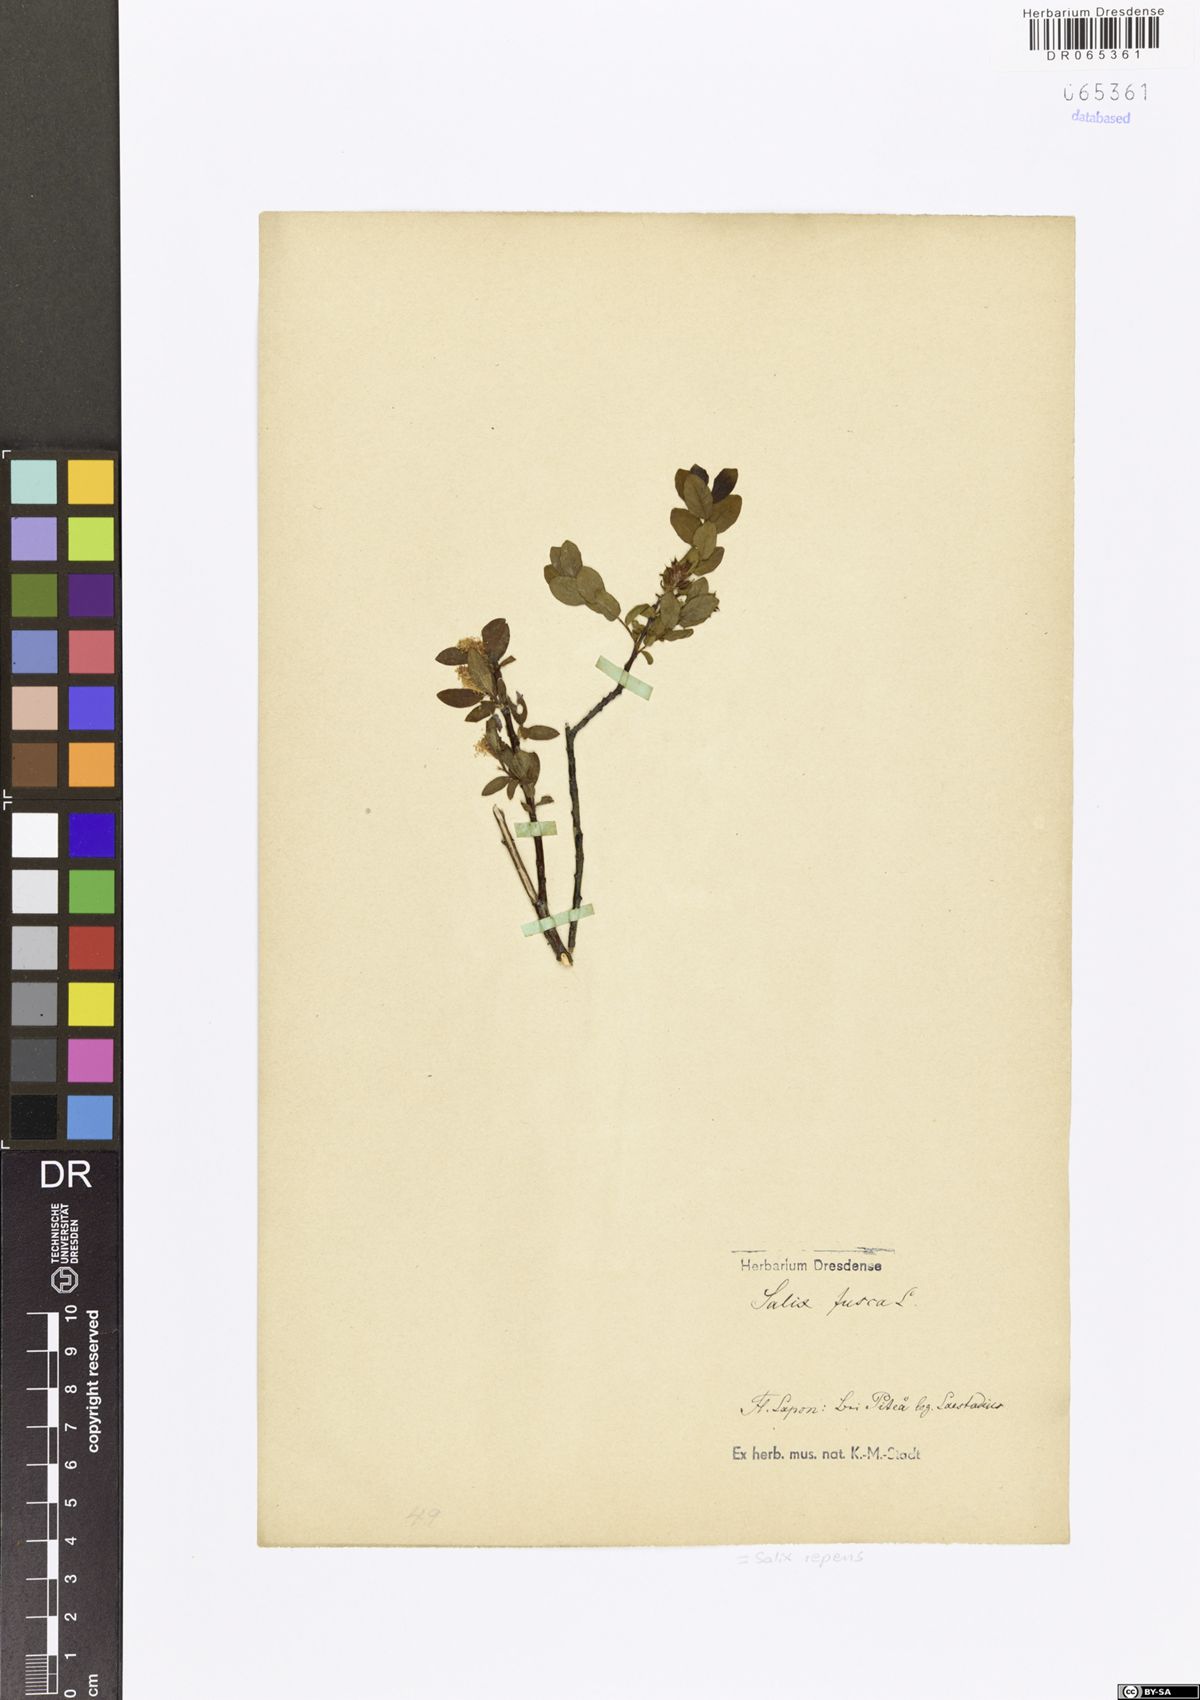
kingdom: Plantae
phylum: Tracheophyta
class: Magnoliopsida
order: Malpighiales
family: Salicaceae
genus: Salix
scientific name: Salix repens
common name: Creeping willow
